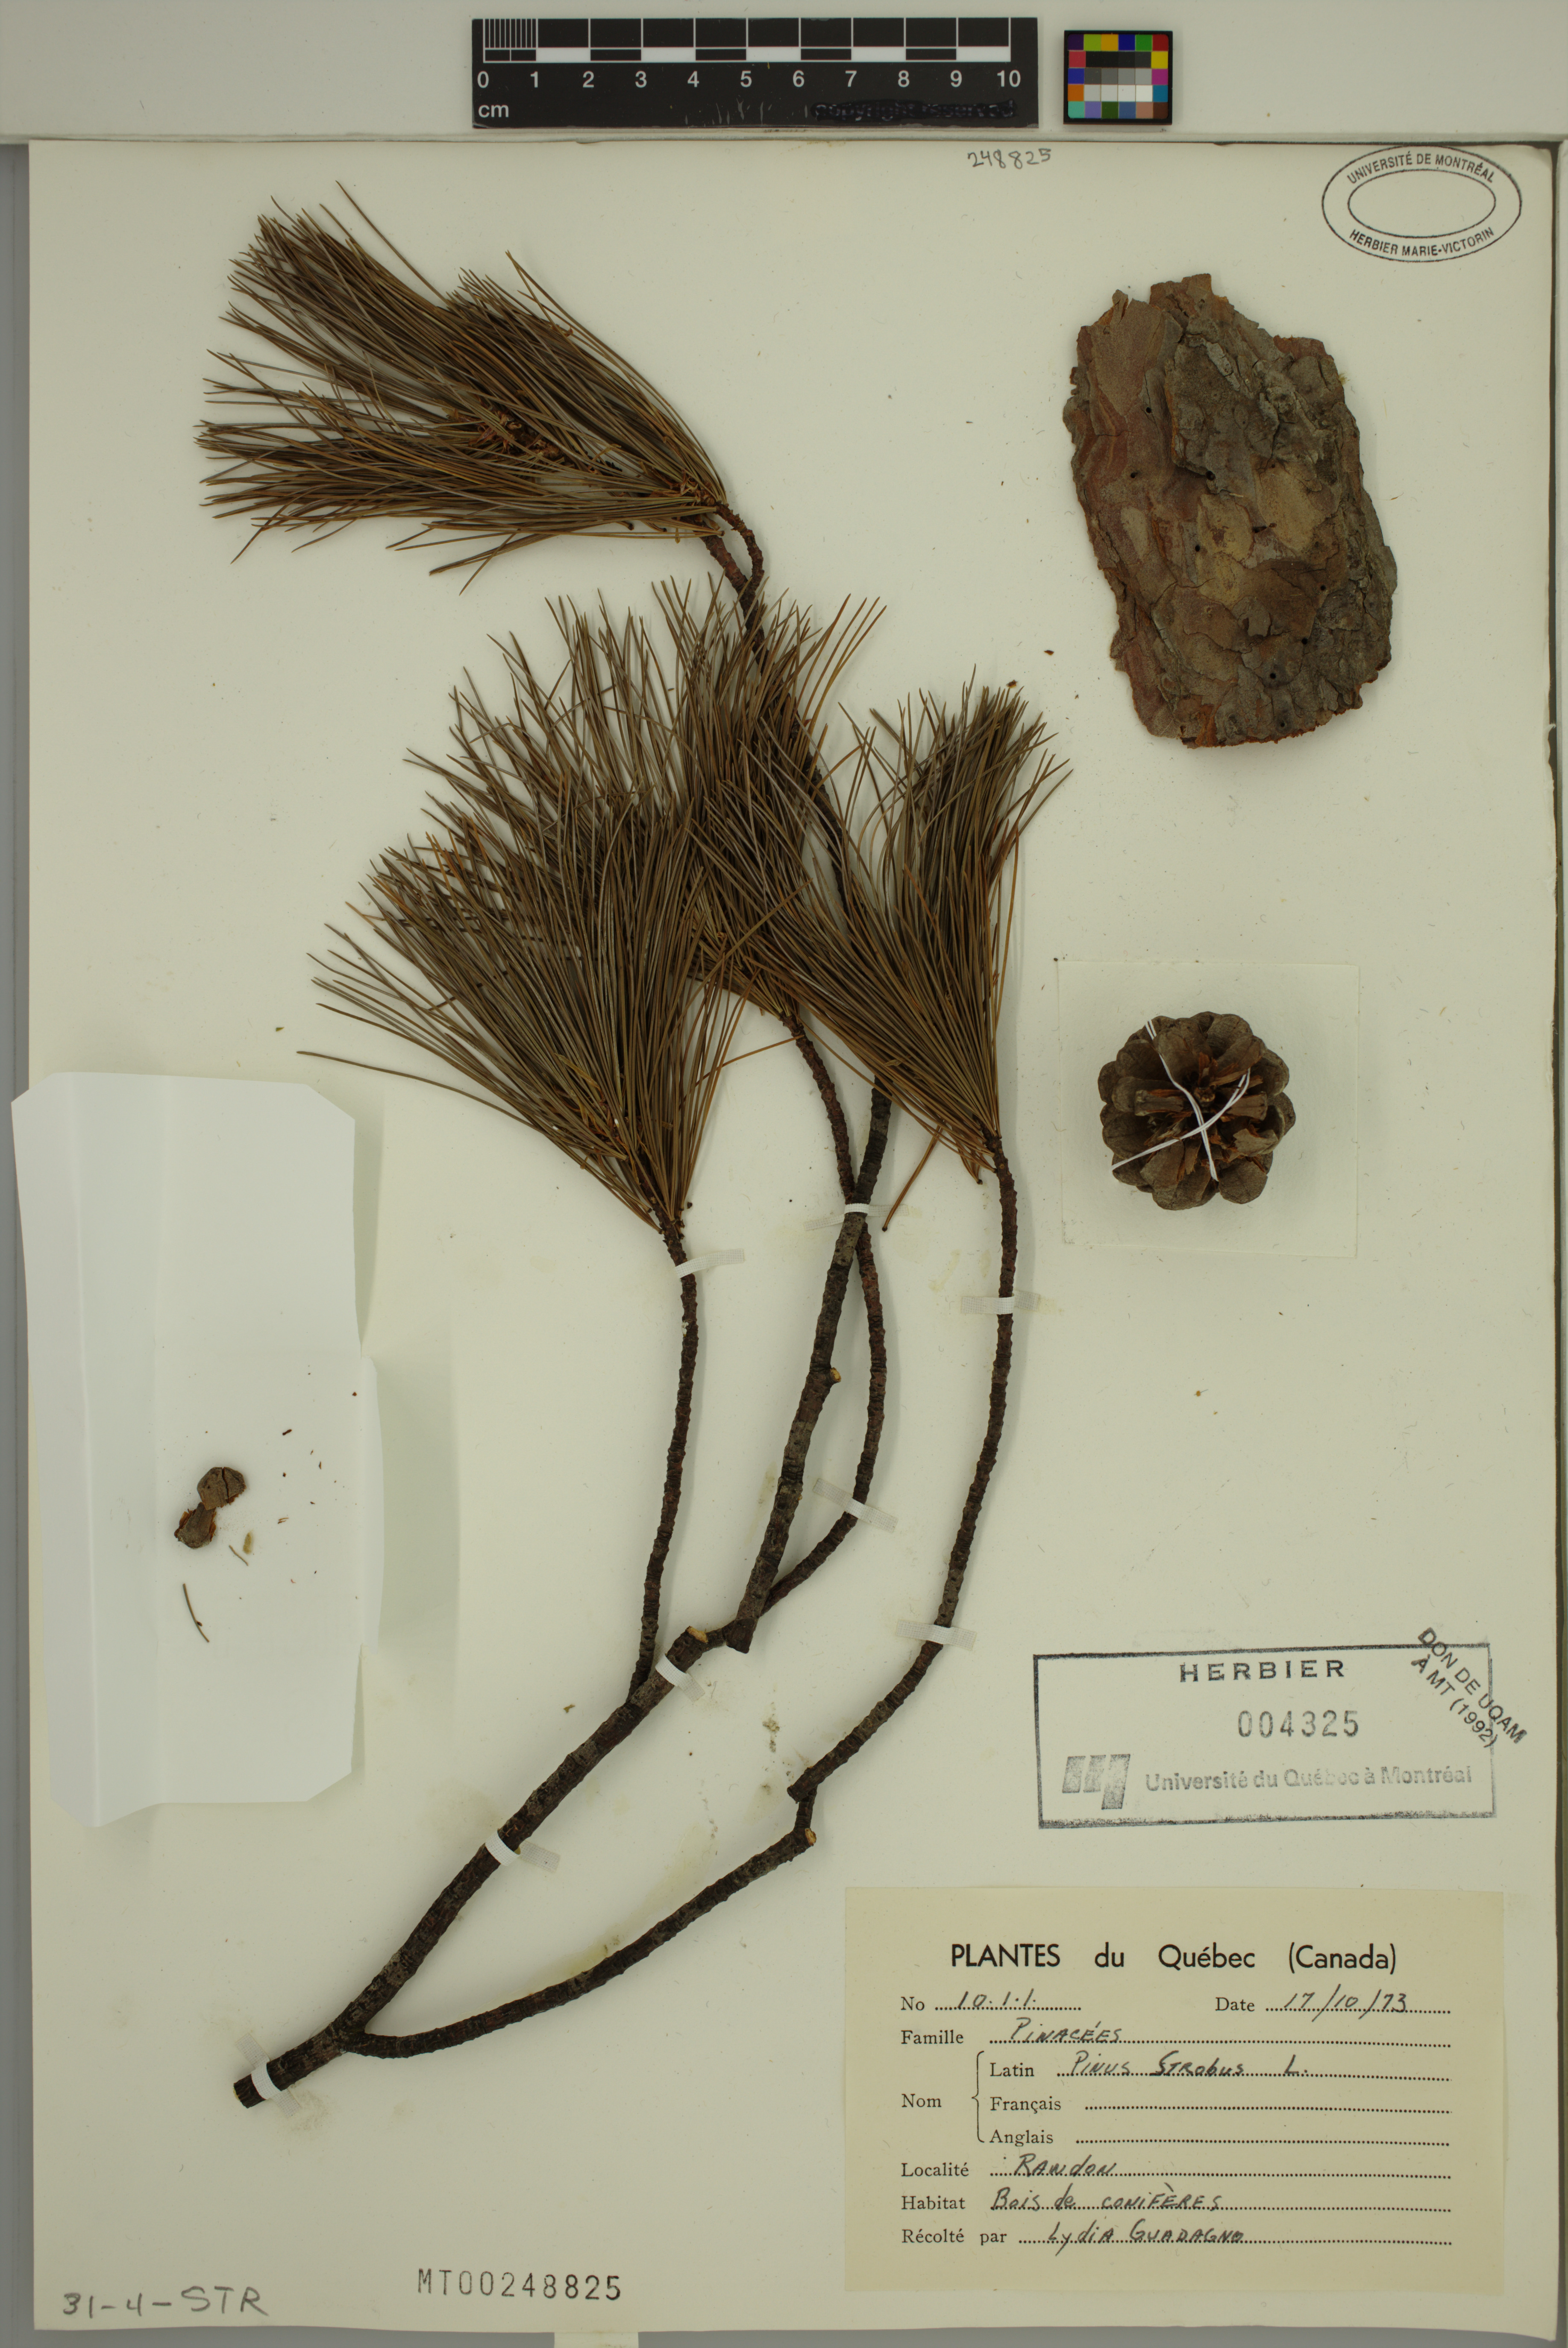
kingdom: Plantae
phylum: Tracheophyta
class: Pinopsida
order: Pinales
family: Pinaceae
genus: Pinus
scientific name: Pinus strobus
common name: Weymouth pine
